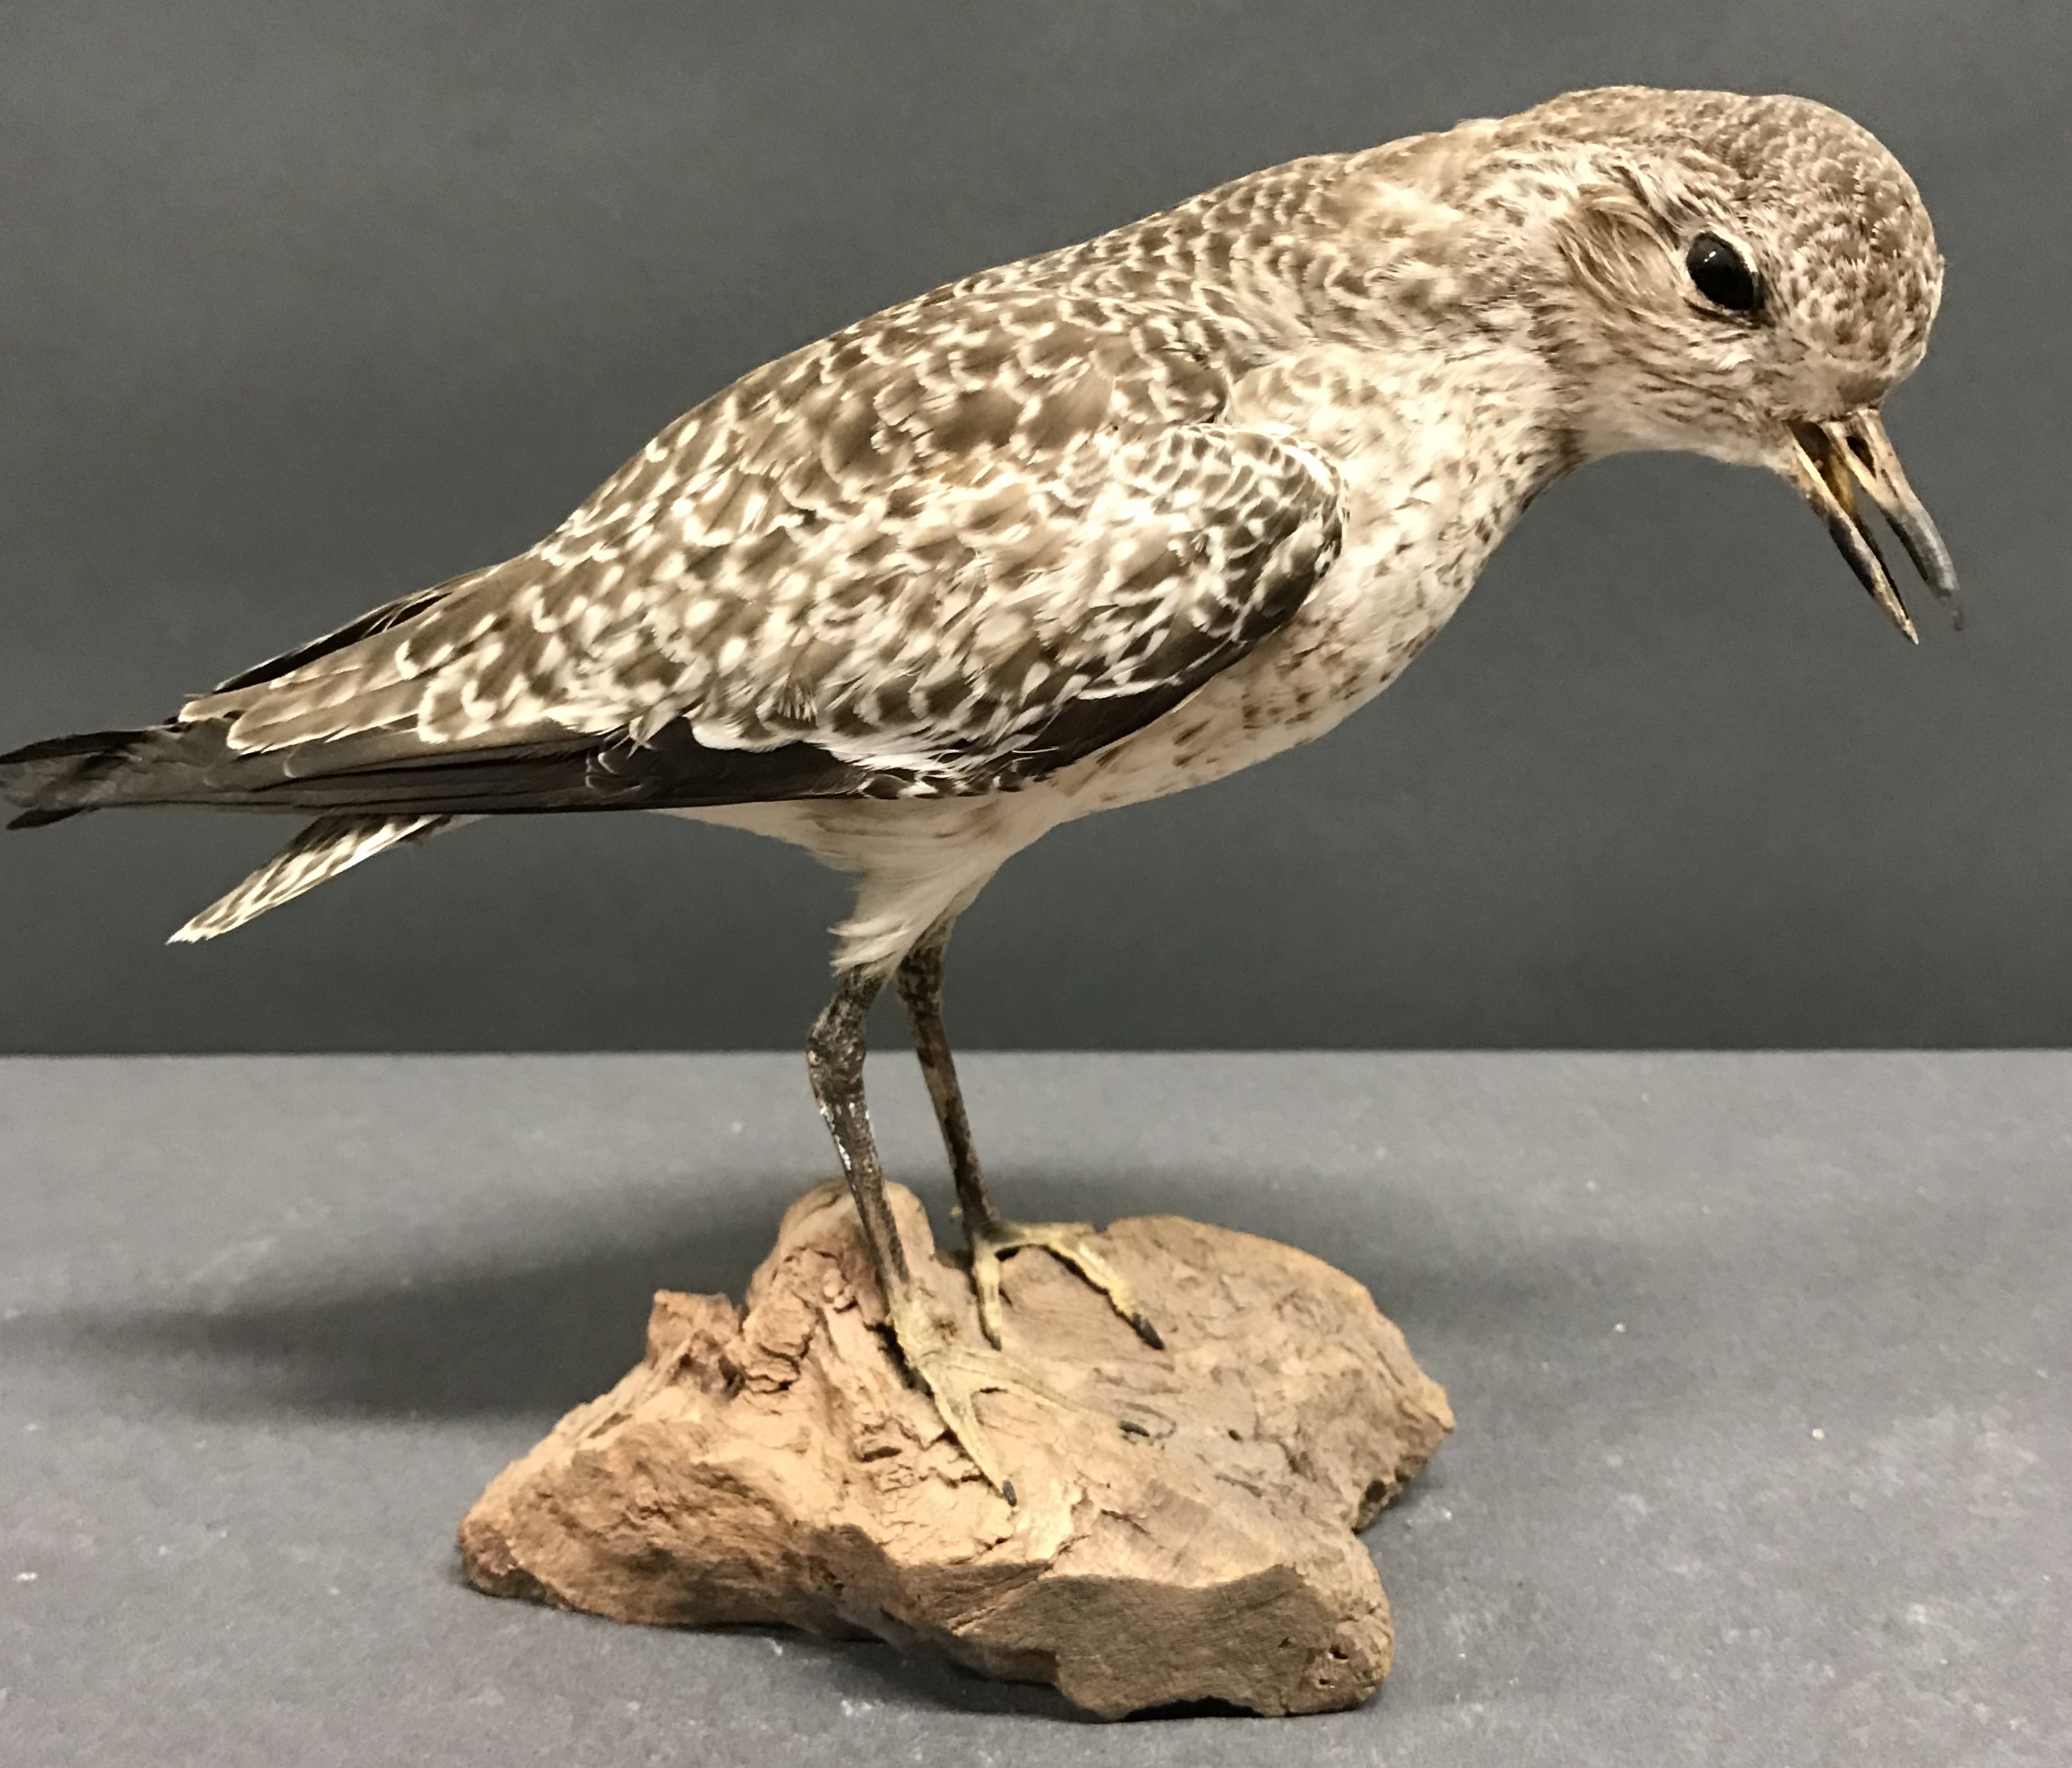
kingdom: Animalia
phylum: Chordata
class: Aves
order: Charadriiformes
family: Charadriidae
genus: Pluvialis
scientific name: Pluvialis squatarola
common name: Grey plover
